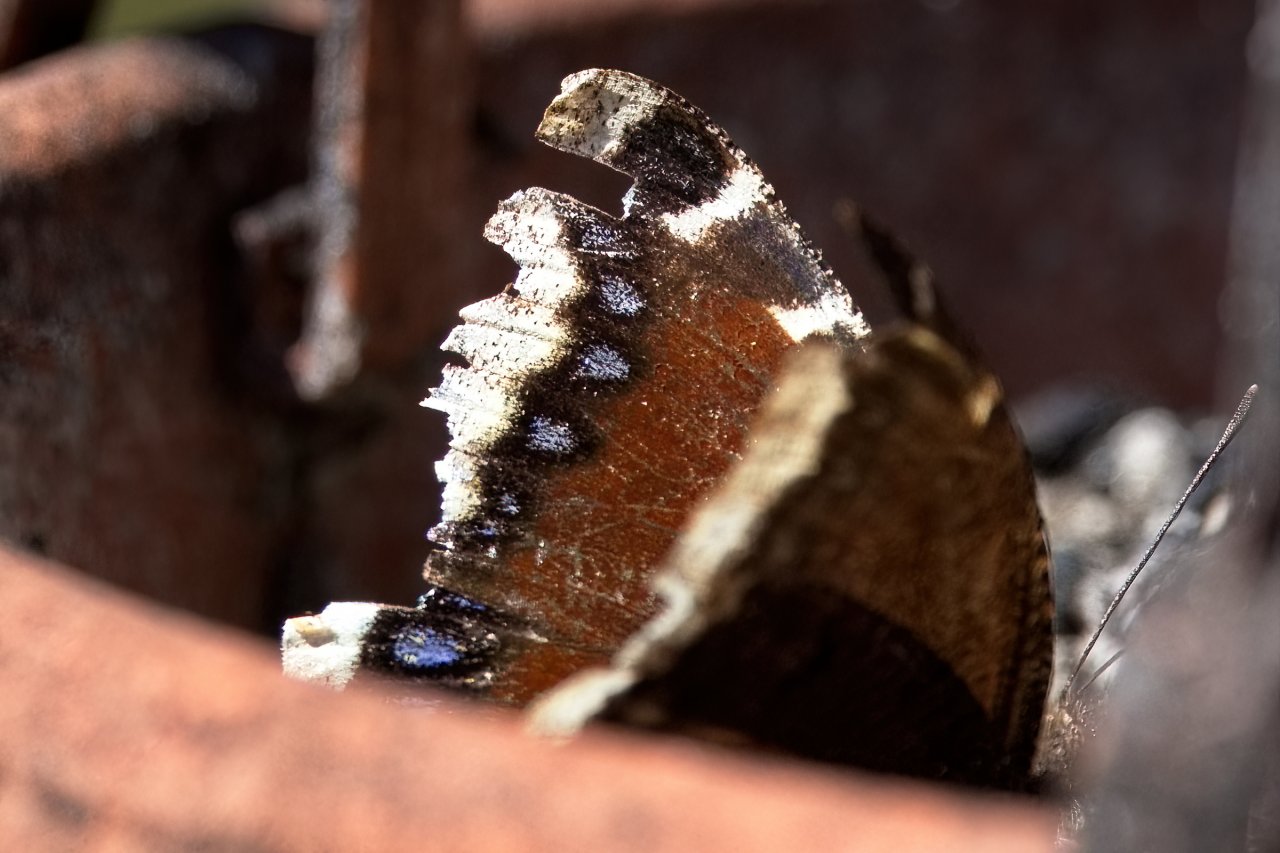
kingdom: Animalia
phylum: Arthropoda
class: Insecta
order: Lepidoptera
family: Nymphalidae
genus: Nymphalis
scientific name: Nymphalis antiopa
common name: Mourning Cloak
